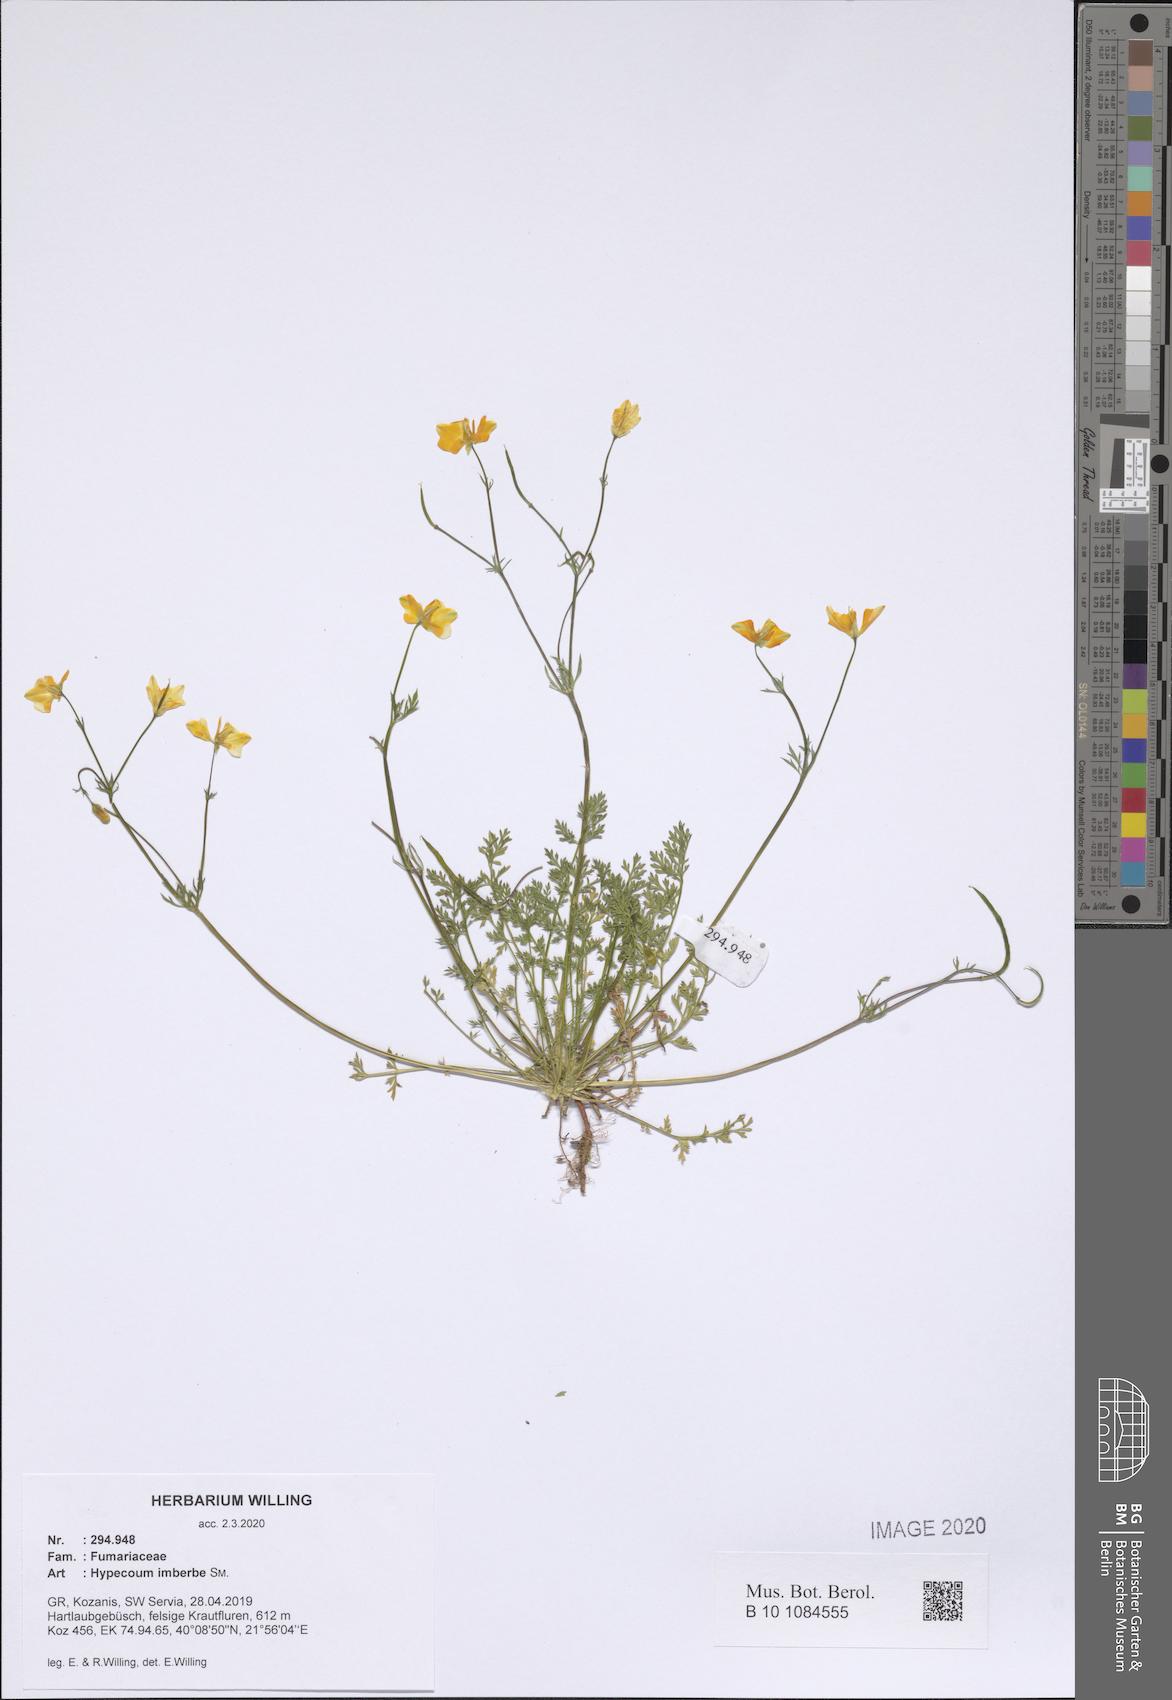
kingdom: Plantae
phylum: Tracheophyta
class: Magnoliopsida
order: Ranunculales
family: Papaveraceae
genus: Hypecoum
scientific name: Hypecoum imberbe
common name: Sicklefruit hypecoum
